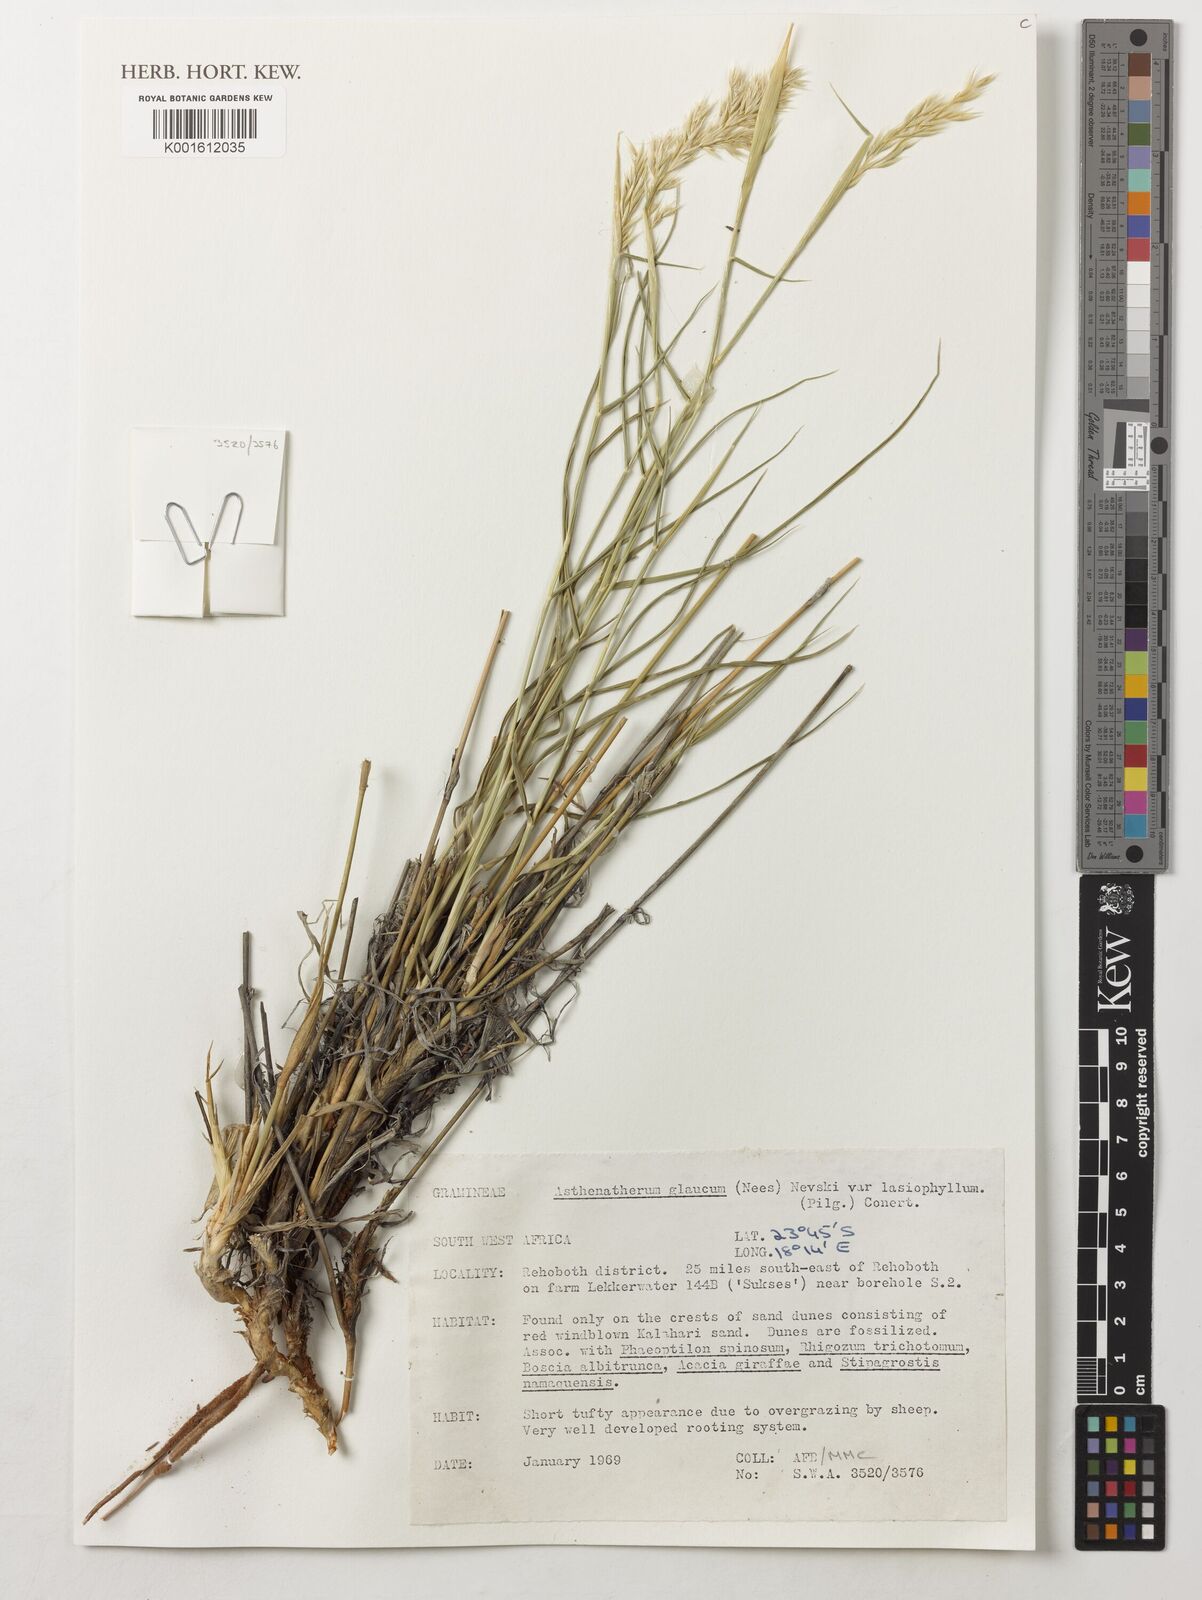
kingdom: Plantae
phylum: Tracheophyta
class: Liliopsida
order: Poales
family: Poaceae
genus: Centropodia
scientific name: Centropodia glauca
